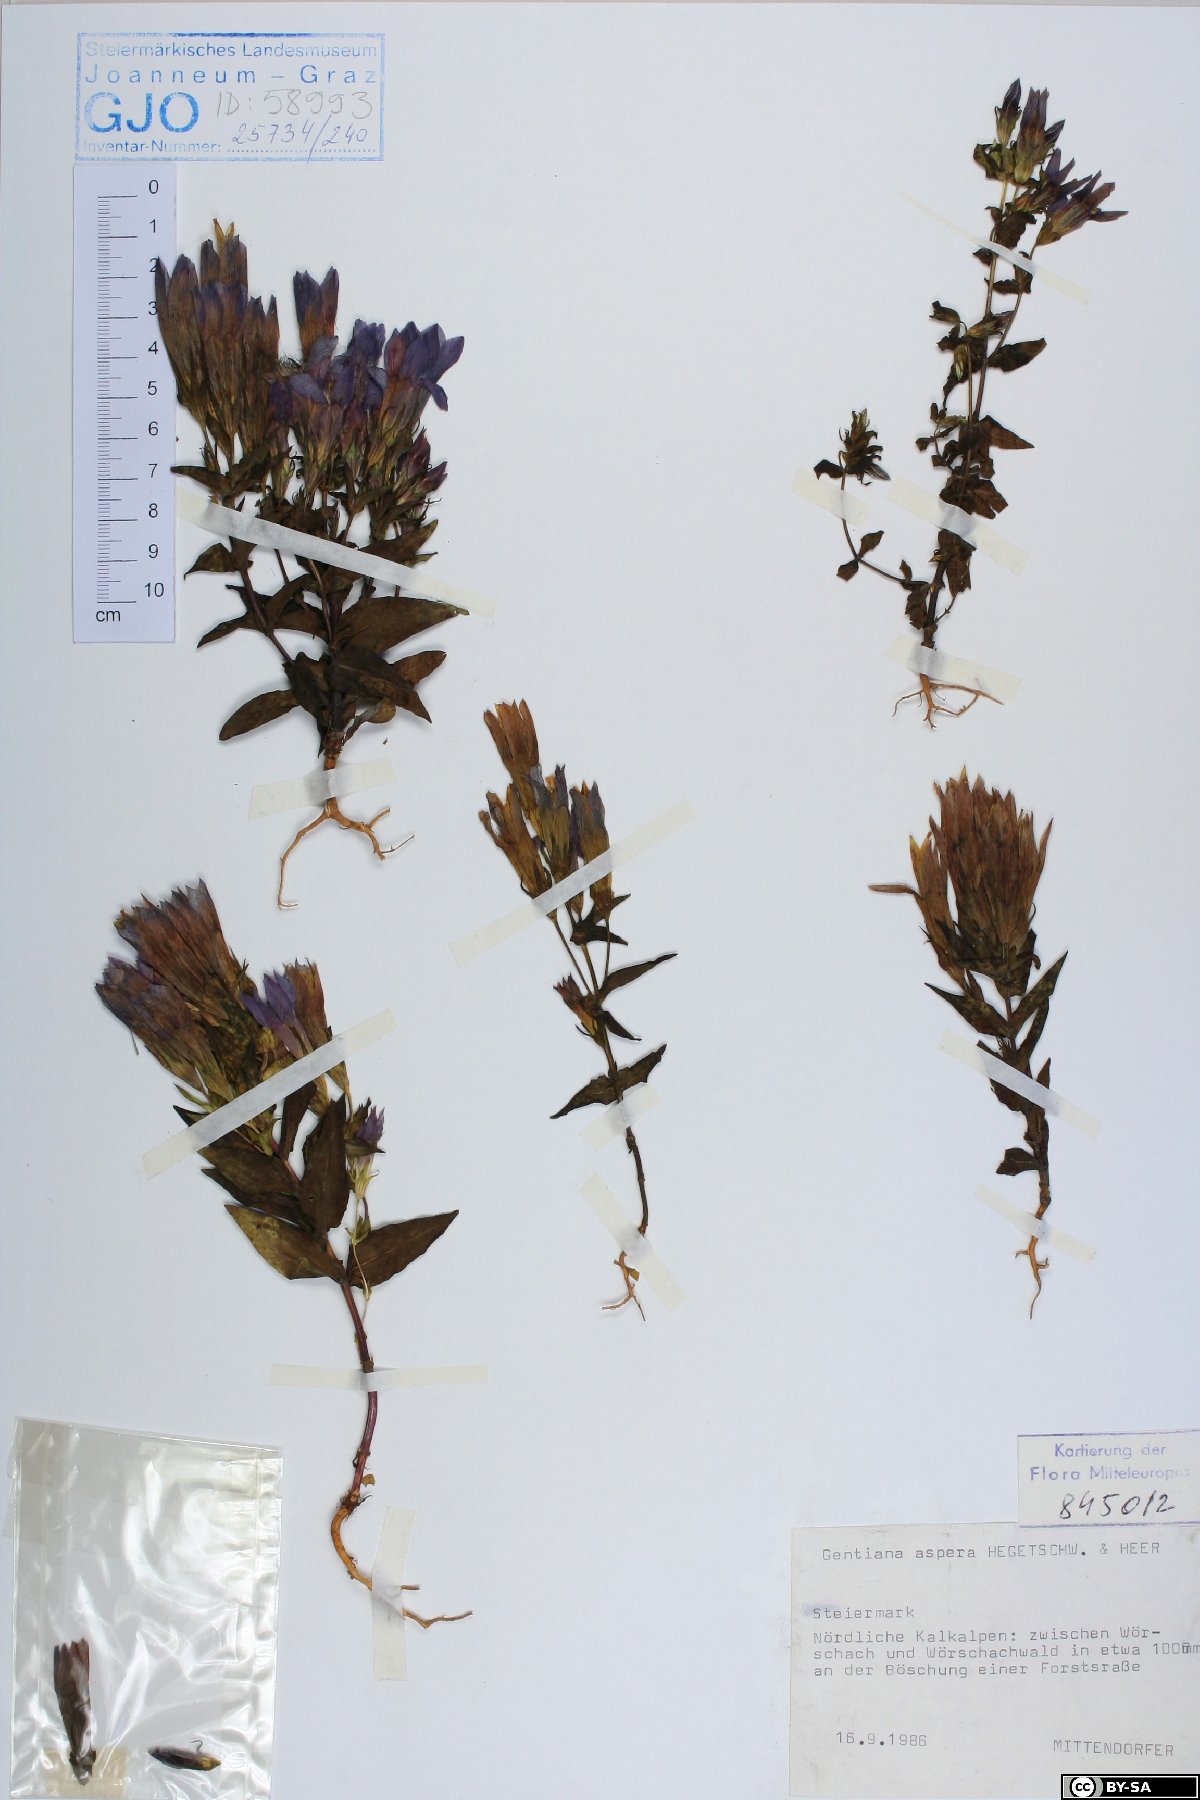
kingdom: Plantae
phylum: Tracheophyta
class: Magnoliopsida
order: Gentianales
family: Gentianaceae
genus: Gentianella
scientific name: Gentianella obtusifolia
